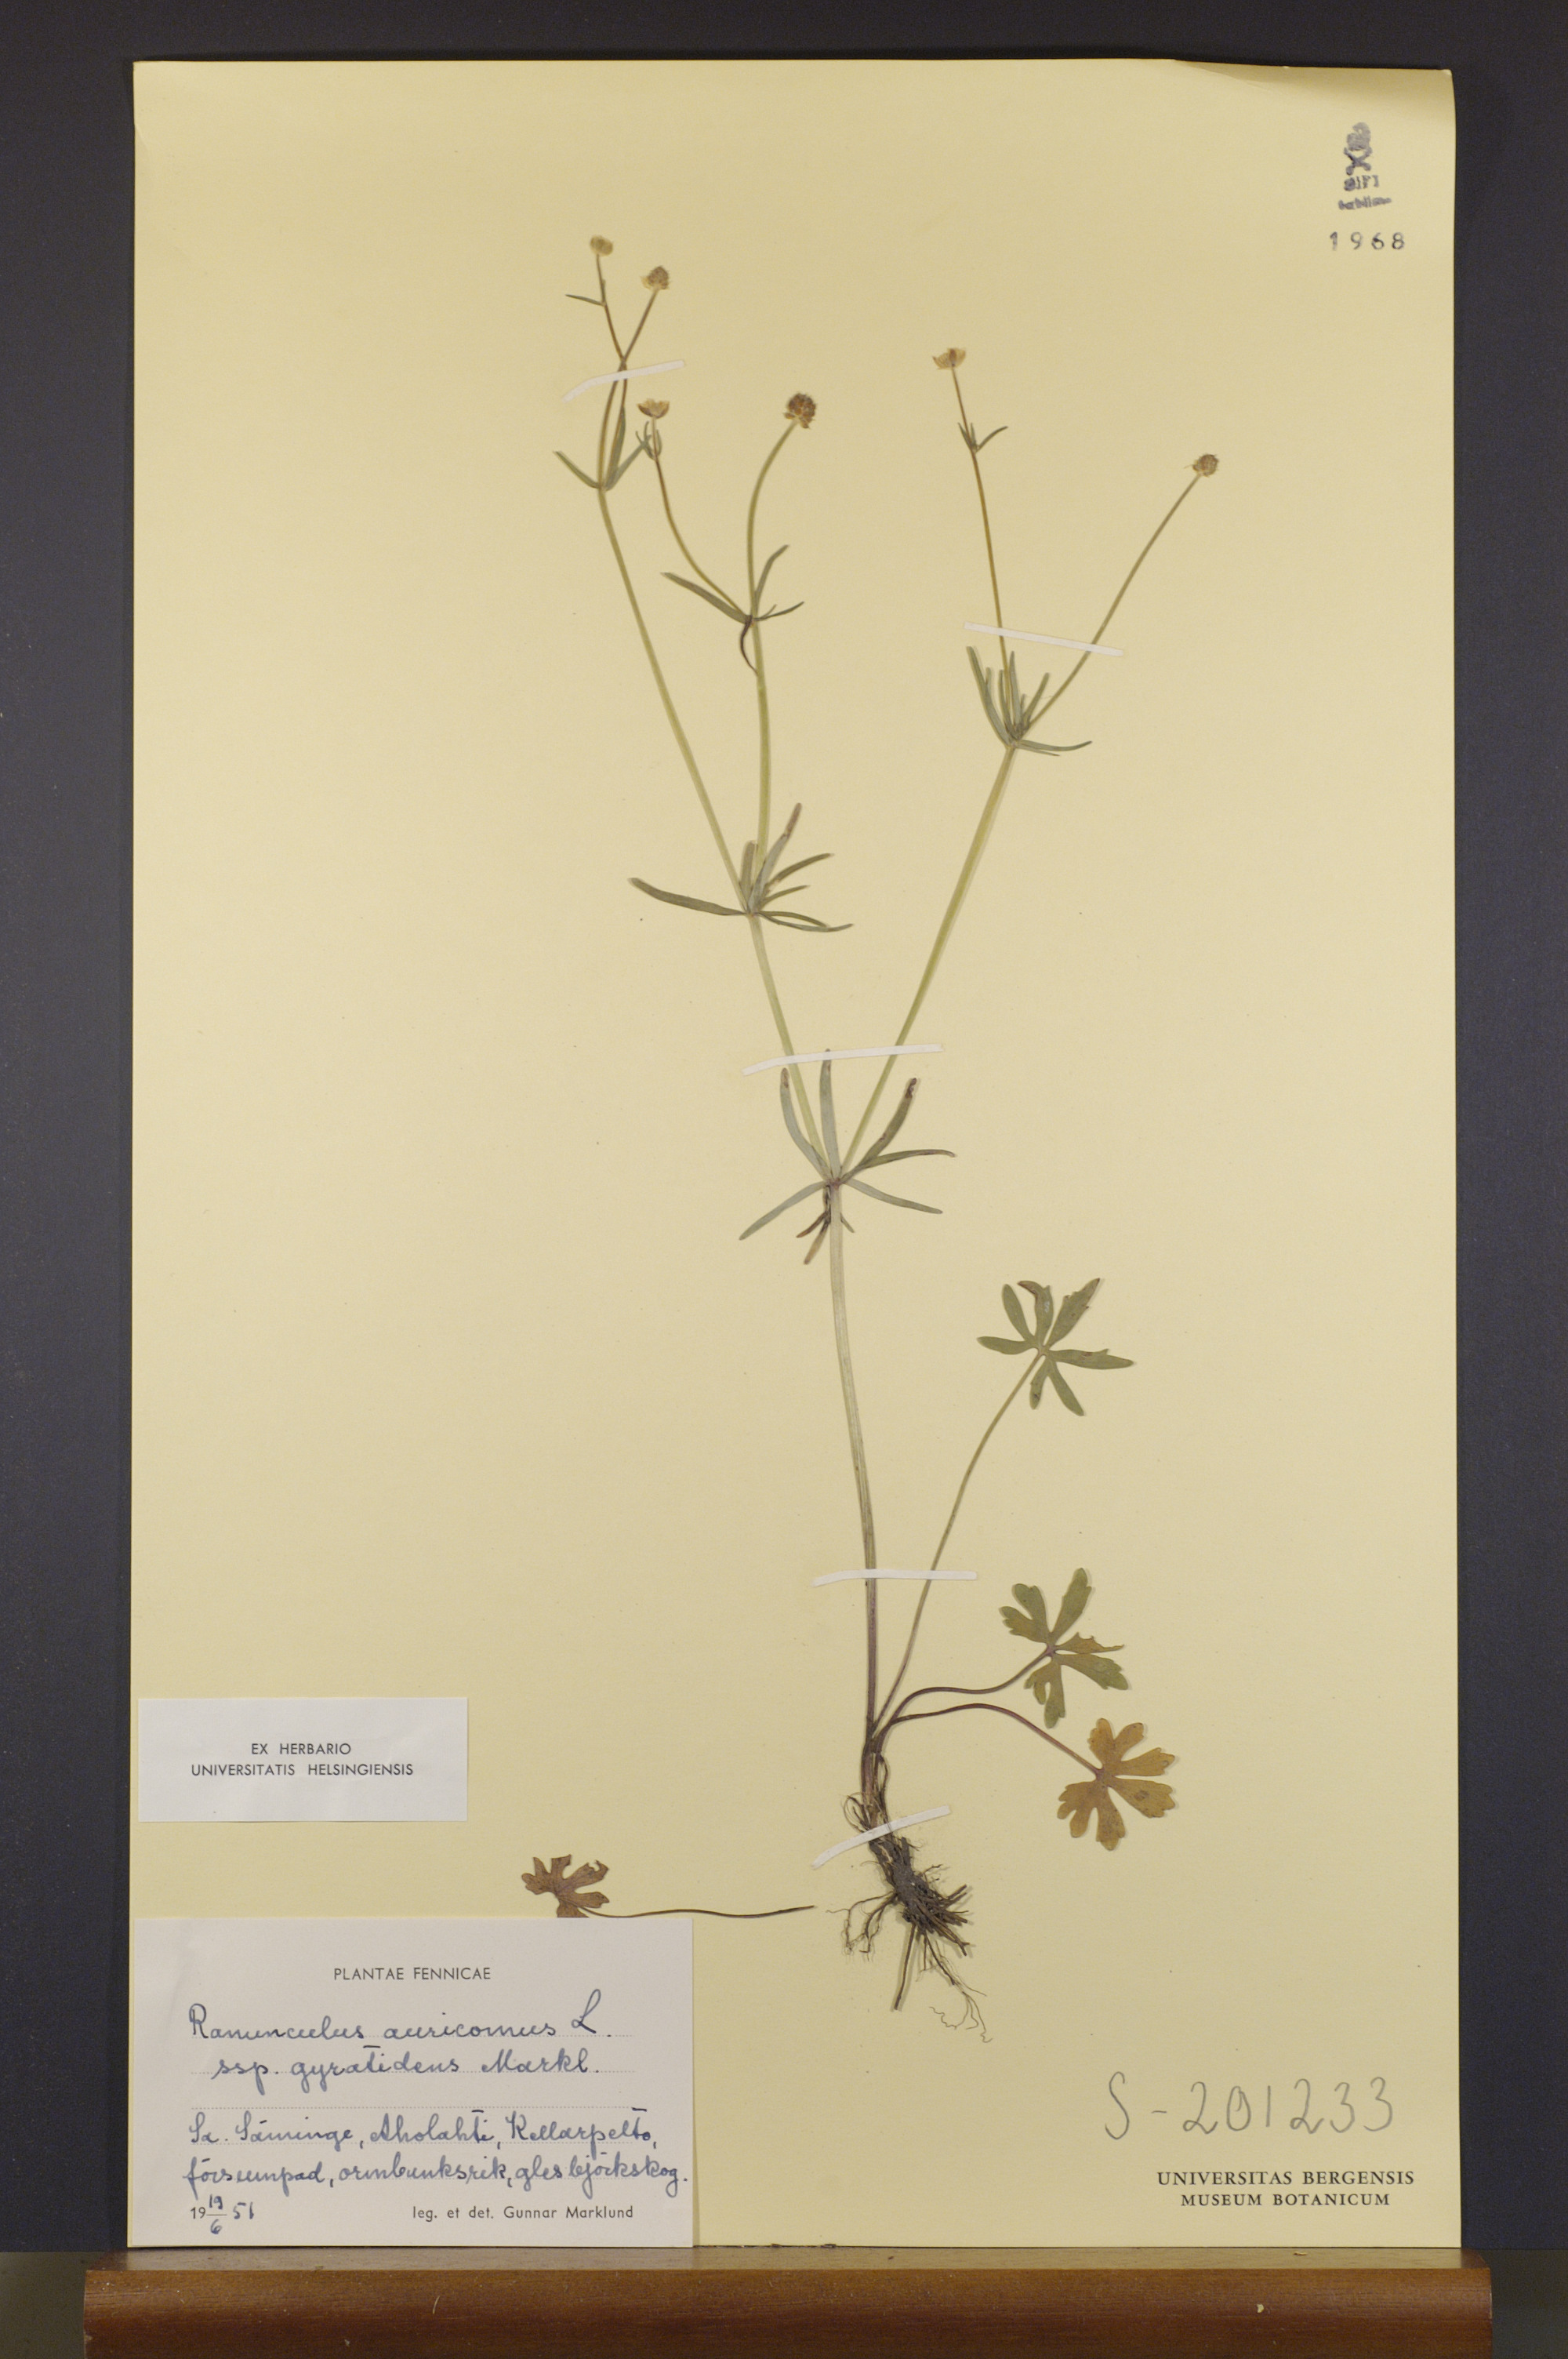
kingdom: Plantae
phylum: Tracheophyta
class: Magnoliopsida
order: Ranunculales
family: Ranunculaceae
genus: Ranunculus
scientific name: Ranunculus gyratidens
